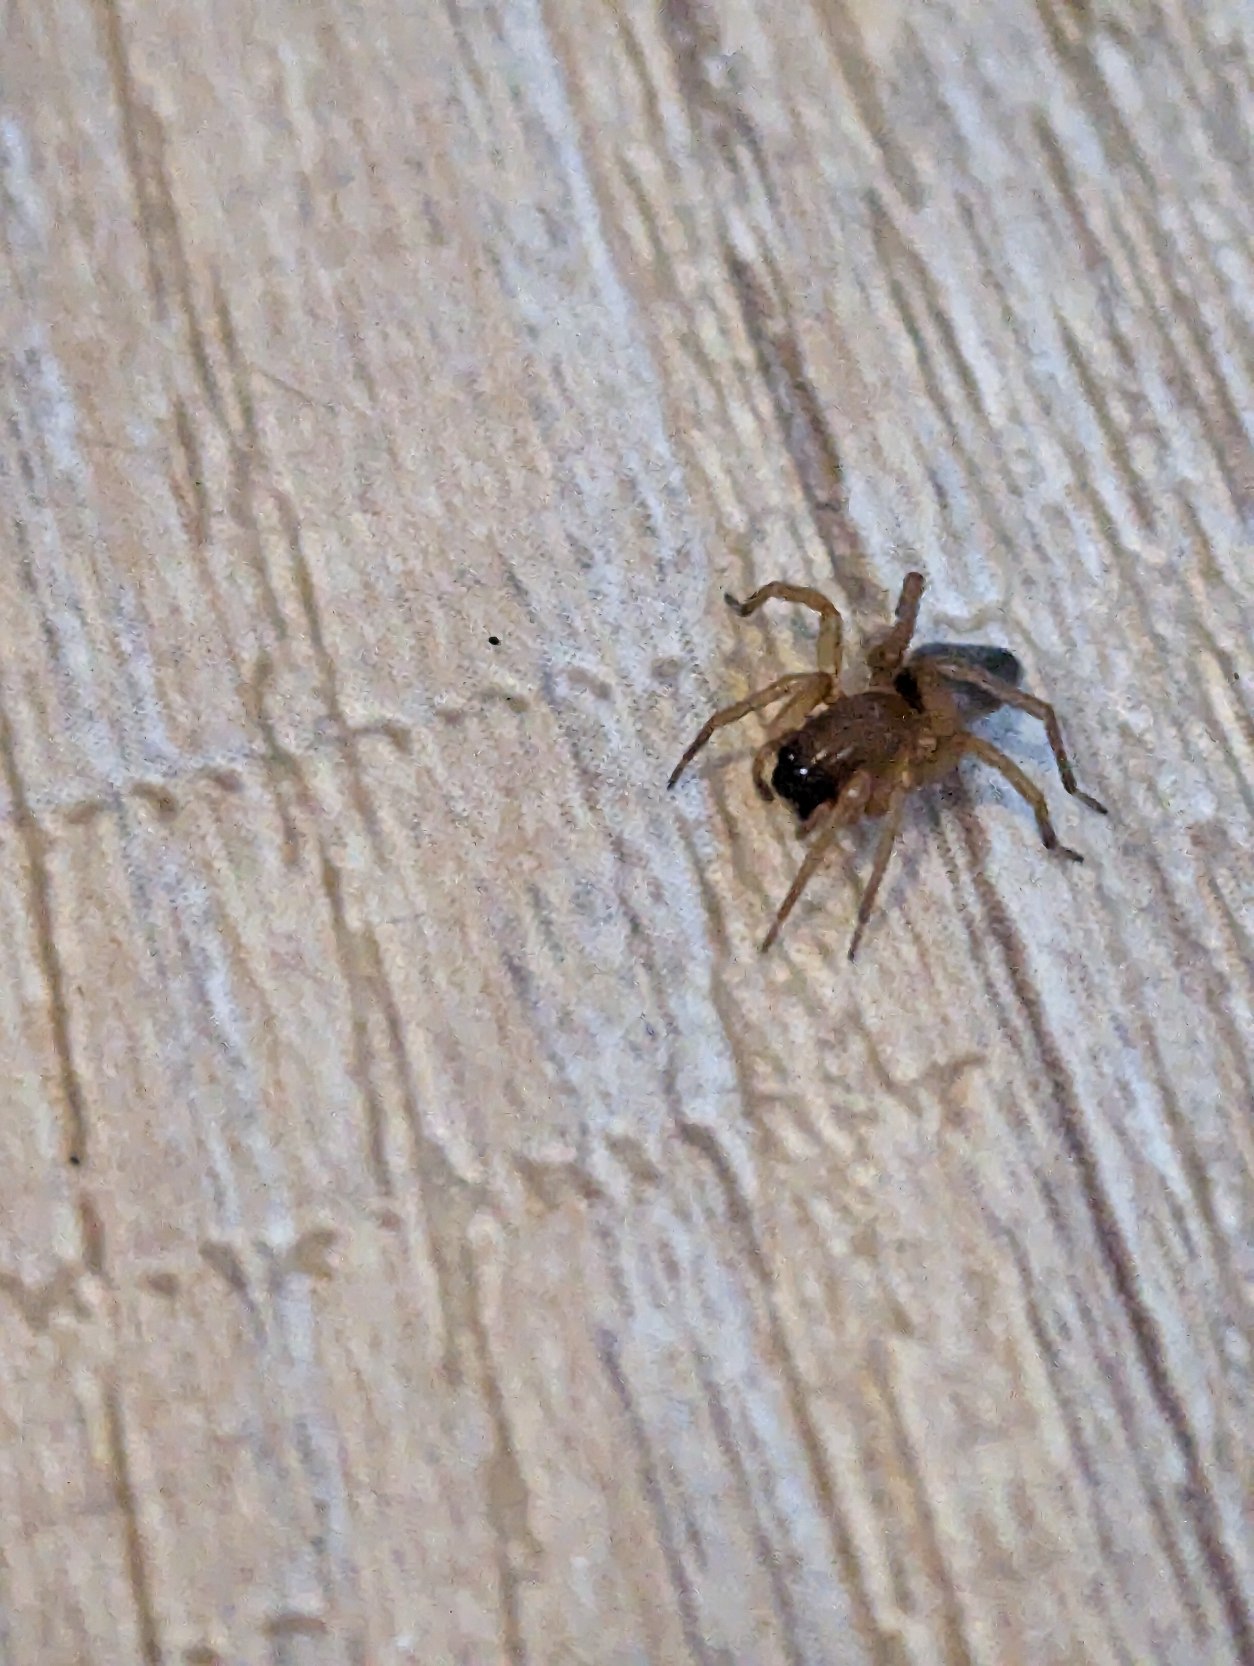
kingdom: Animalia
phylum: Arthropoda
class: Arachnida
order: Araneae
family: Clubionidae
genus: Clubiona
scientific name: Clubiona
